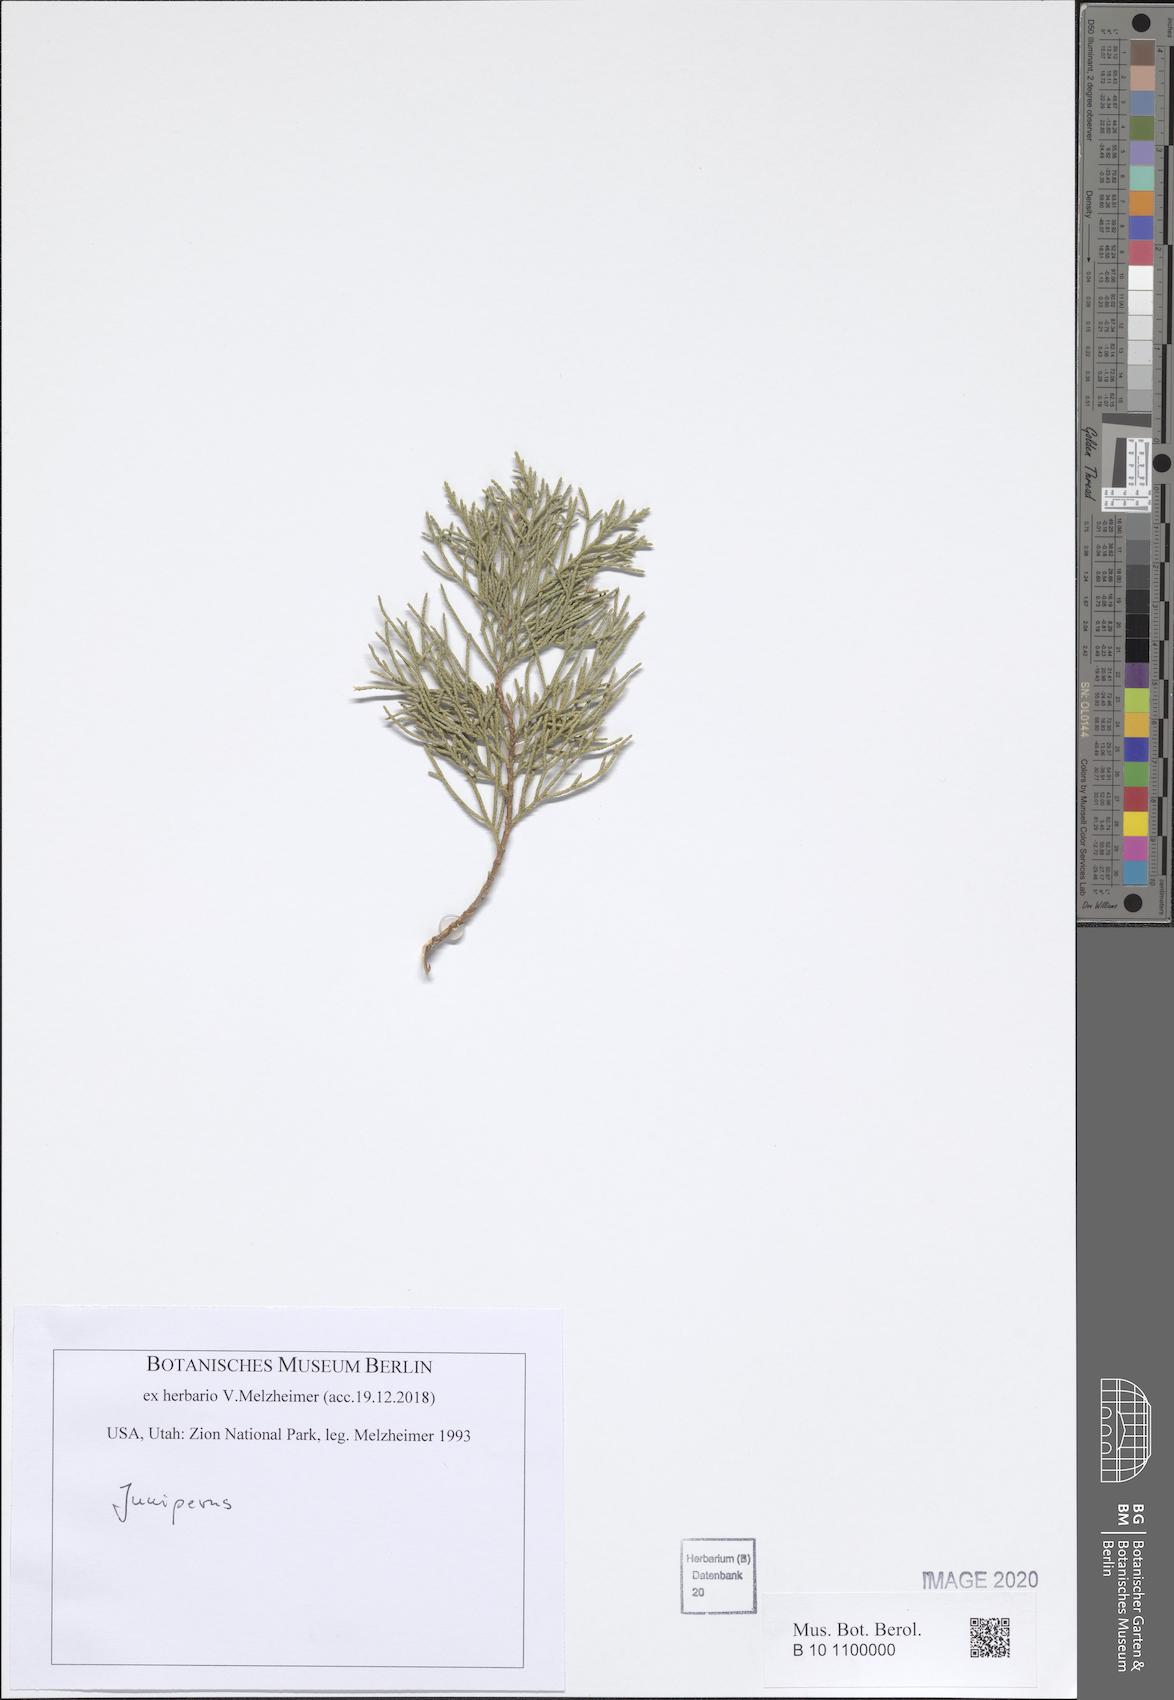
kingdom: Plantae
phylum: Tracheophyta
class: Pinopsida
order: Pinales
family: Cupressaceae
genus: Juniperus
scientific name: Juniperus
